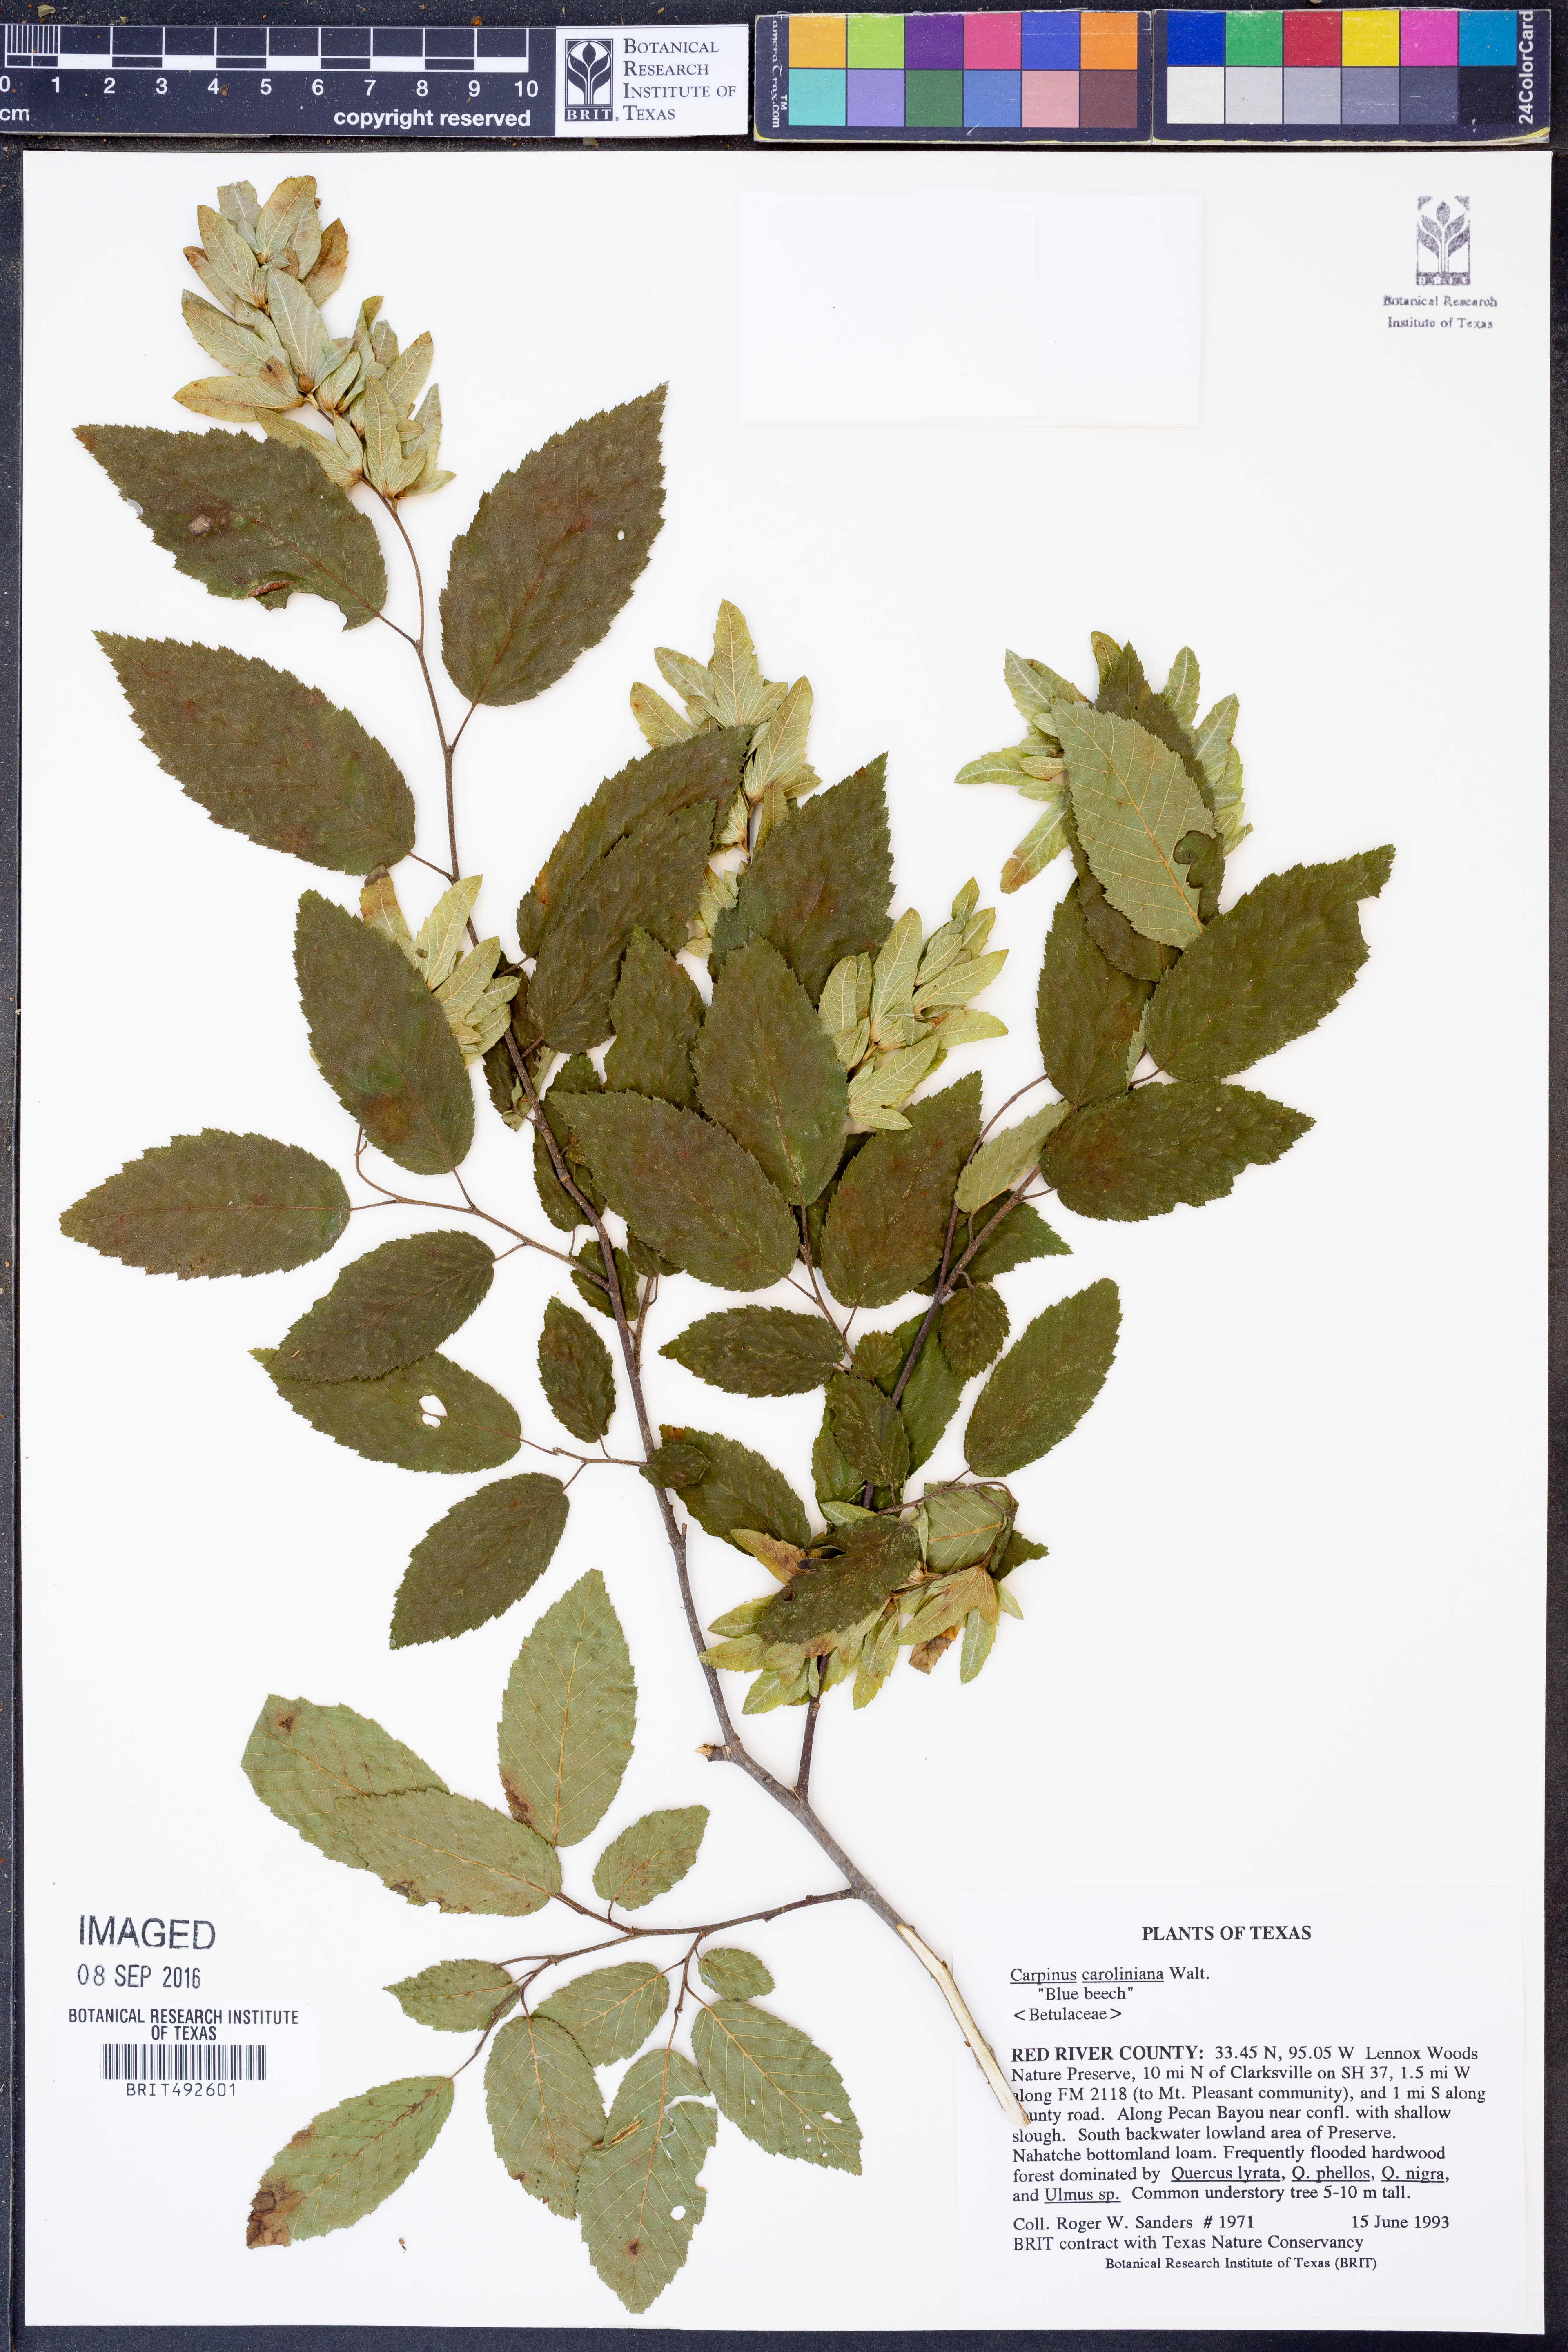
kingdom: Plantae
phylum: Tracheophyta
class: Magnoliopsida
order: Fagales
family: Betulaceae
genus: Carpinus
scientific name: Carpinus caroliniana
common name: American hornbeam
